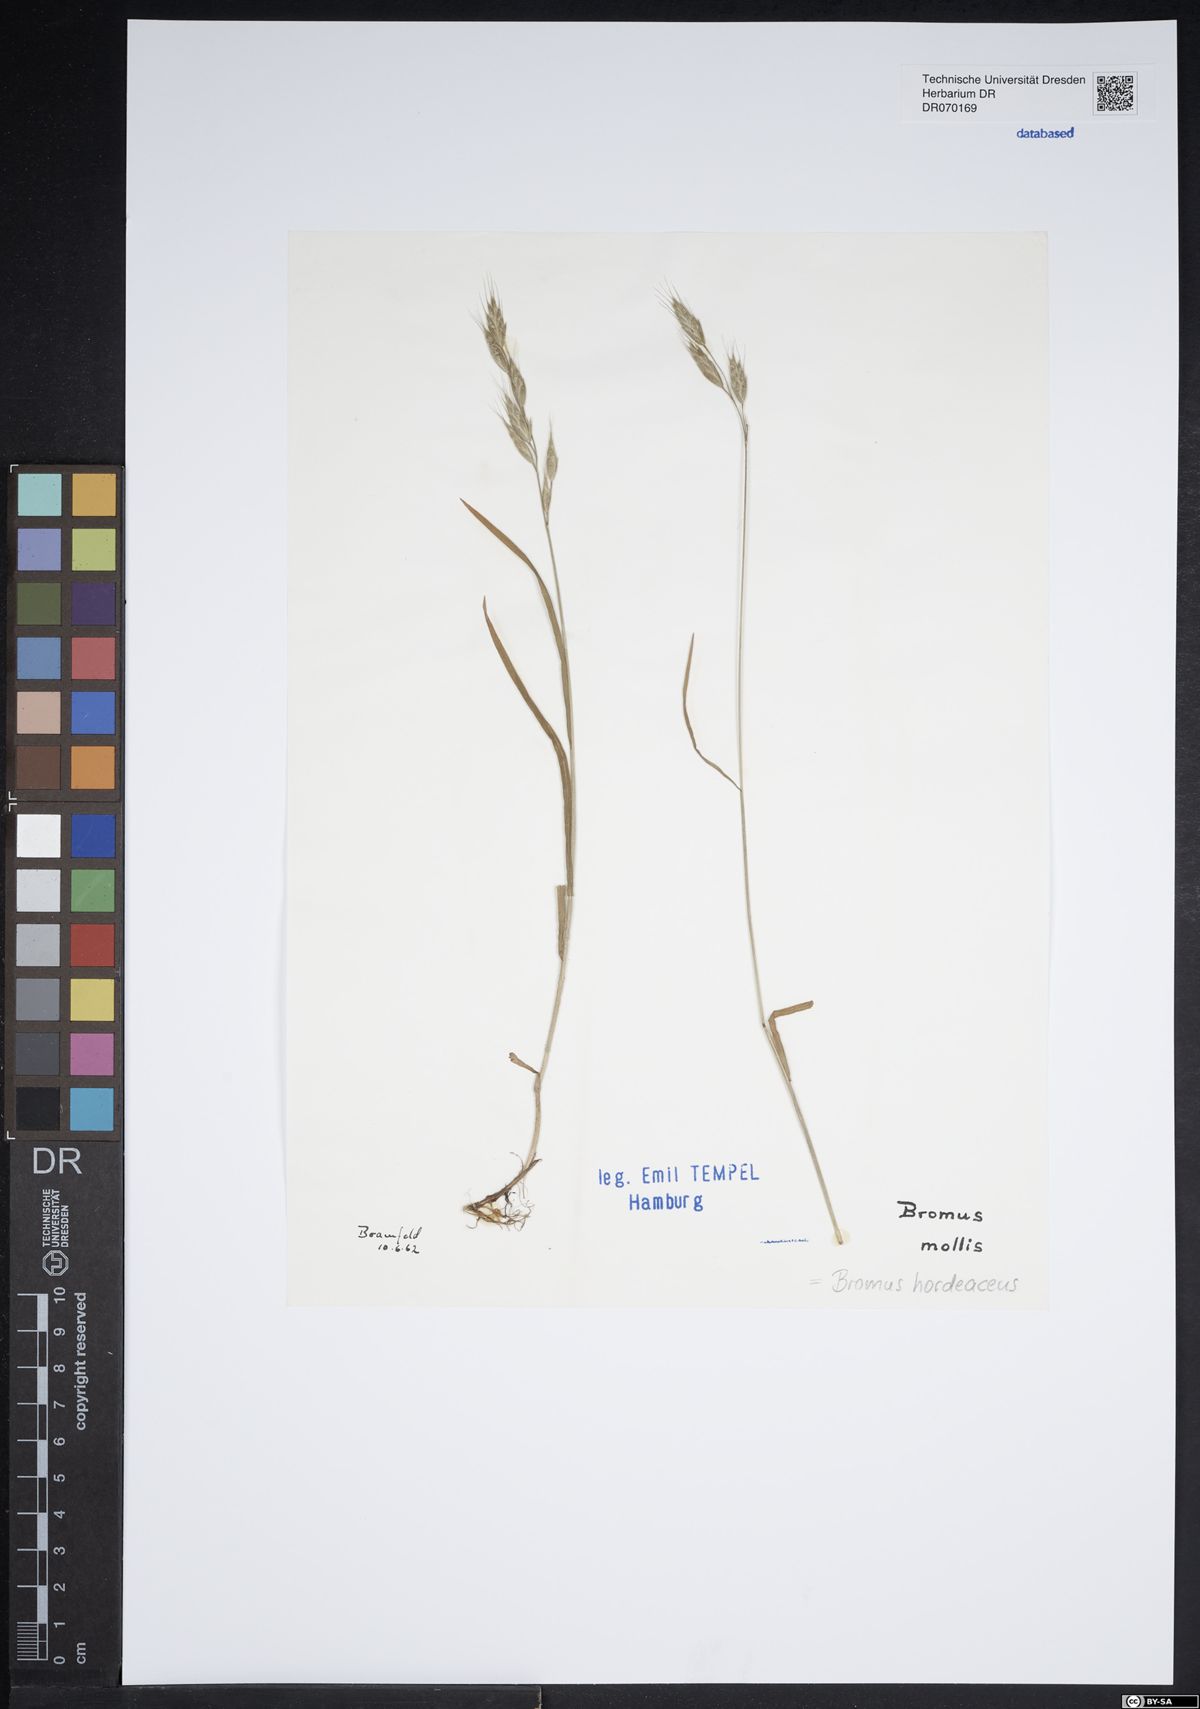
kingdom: Plantae
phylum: Tracheophyta
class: Liliopsida
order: Poales
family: Poaceae
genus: Bromus
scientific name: Bromus hordeaceus
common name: Soft brome
